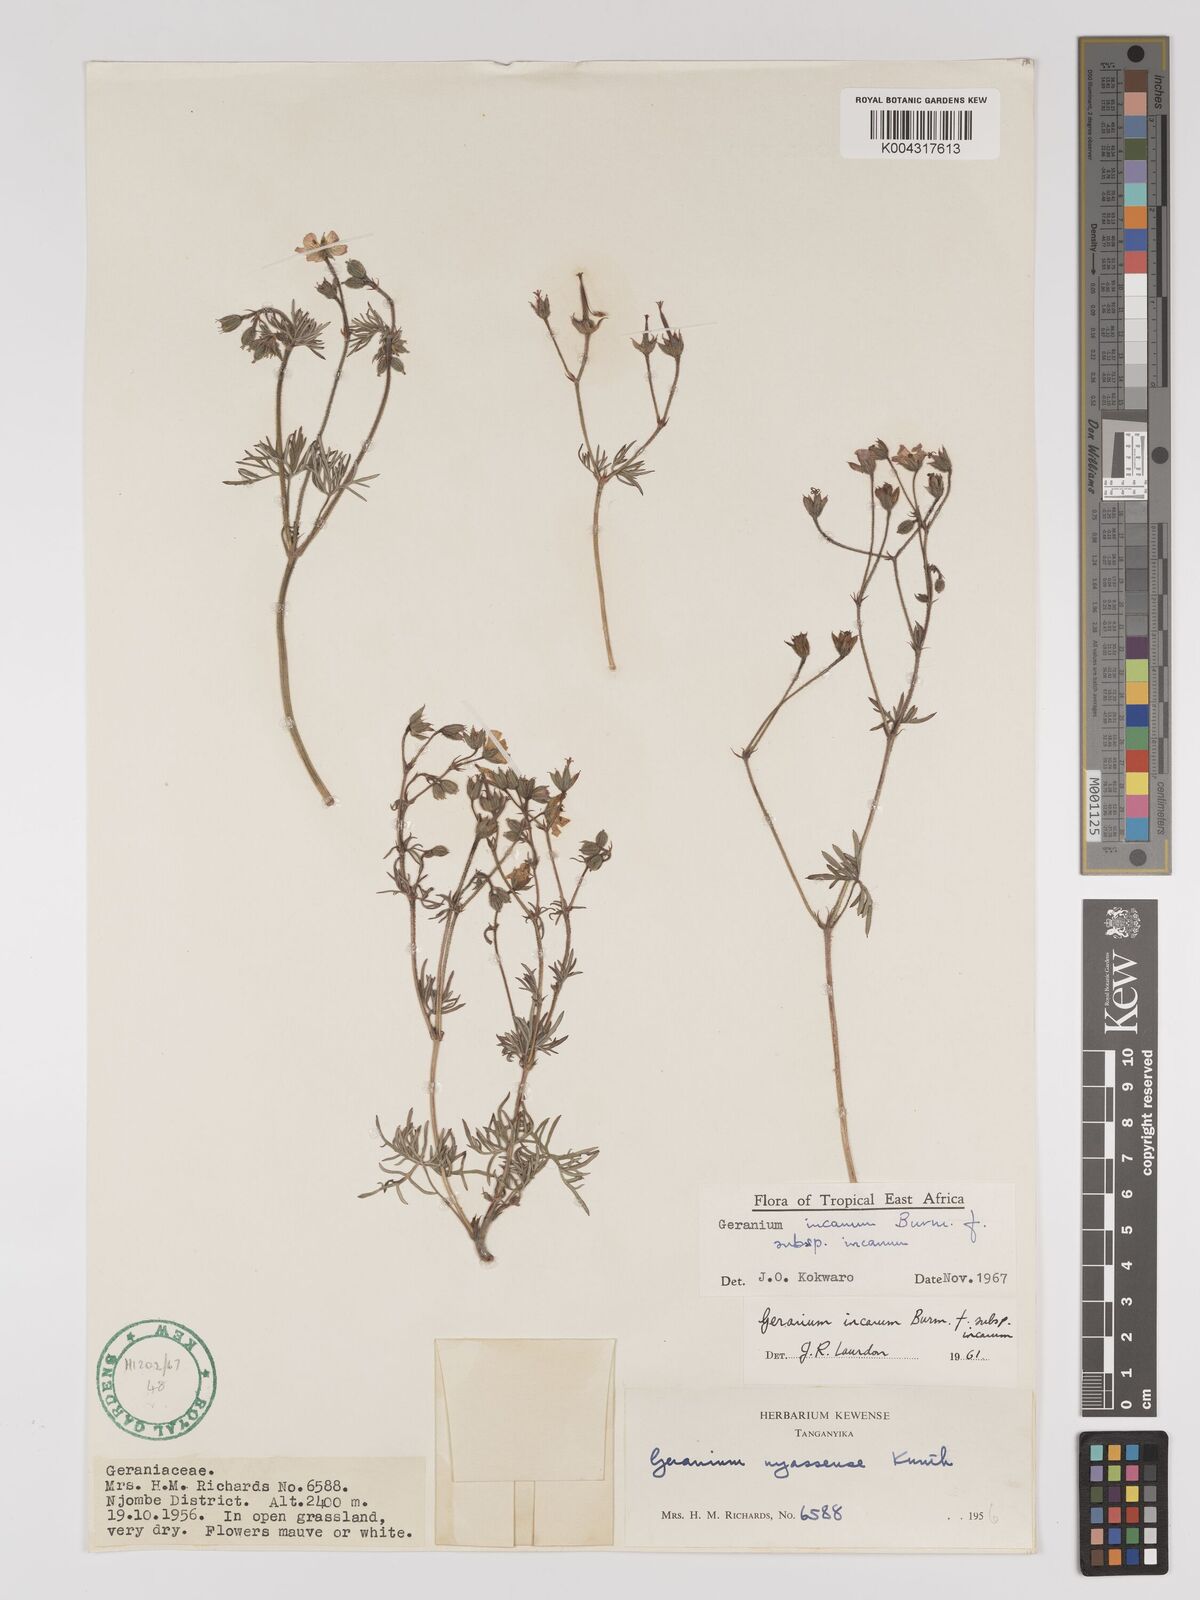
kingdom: Plantae
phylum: Tracheophyta
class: Magnoliopsida
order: Geraniales
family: Geraniaceae
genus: Geranium
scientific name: Geranium incanum
